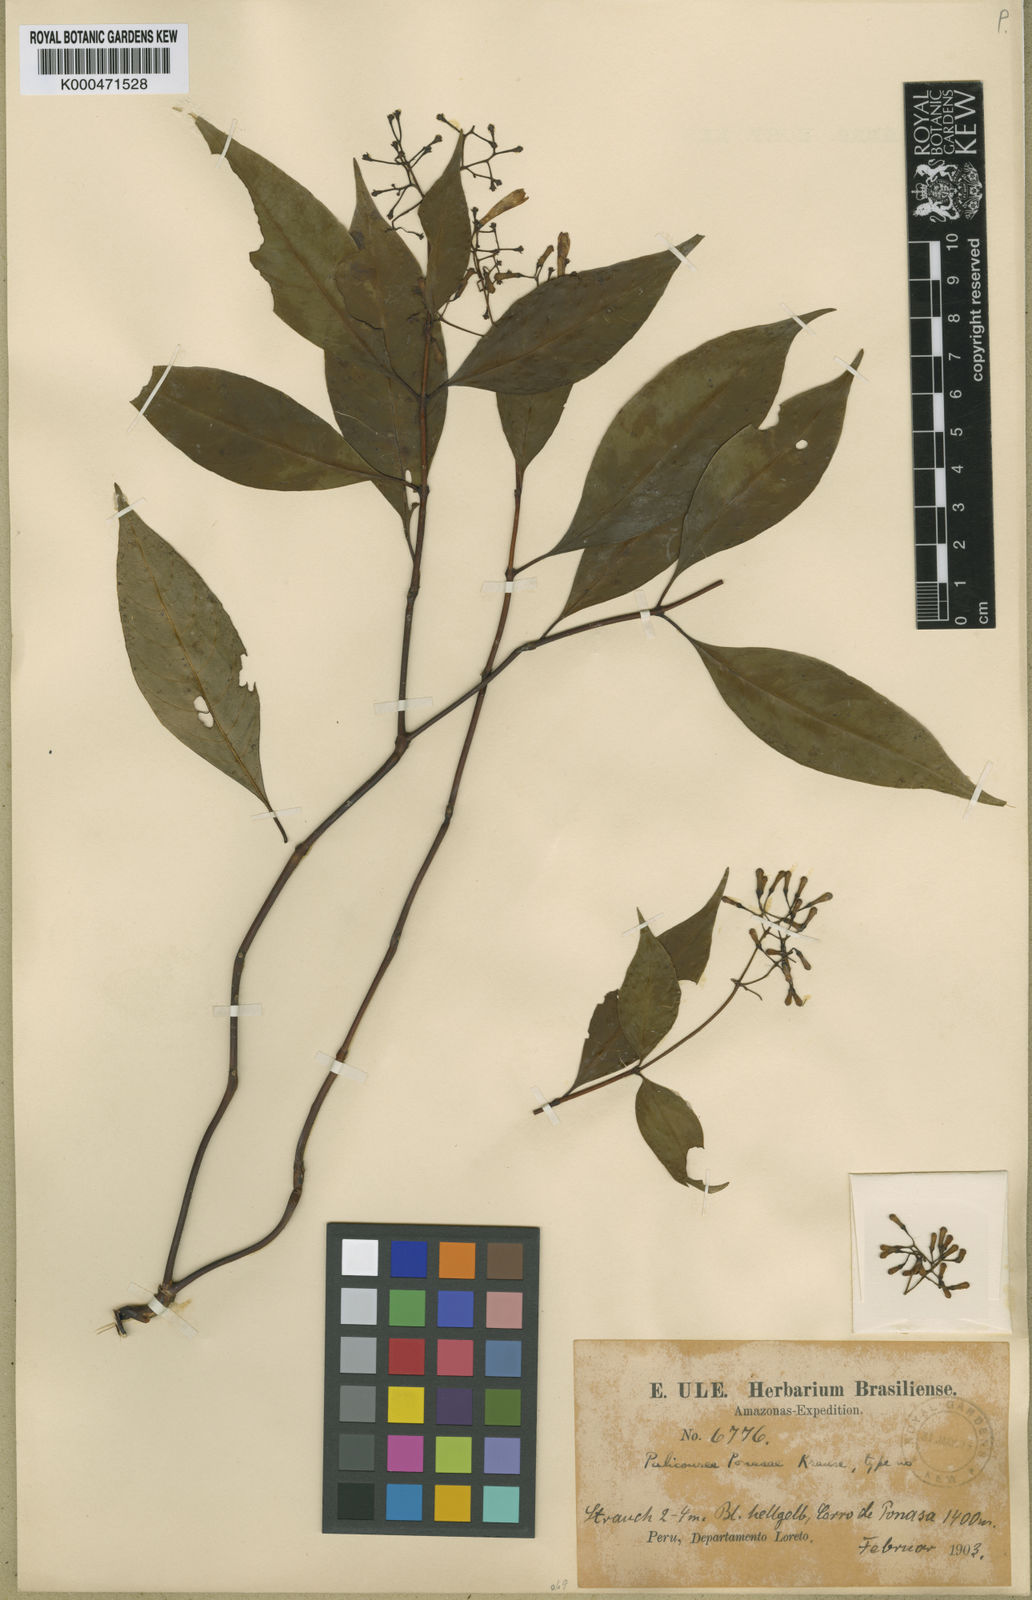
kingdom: Plantae
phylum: Tracheophyta
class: Magnoliopsida
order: Gentianales
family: Rubiaceae
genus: Palicourea
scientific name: Palicourea ponasae
